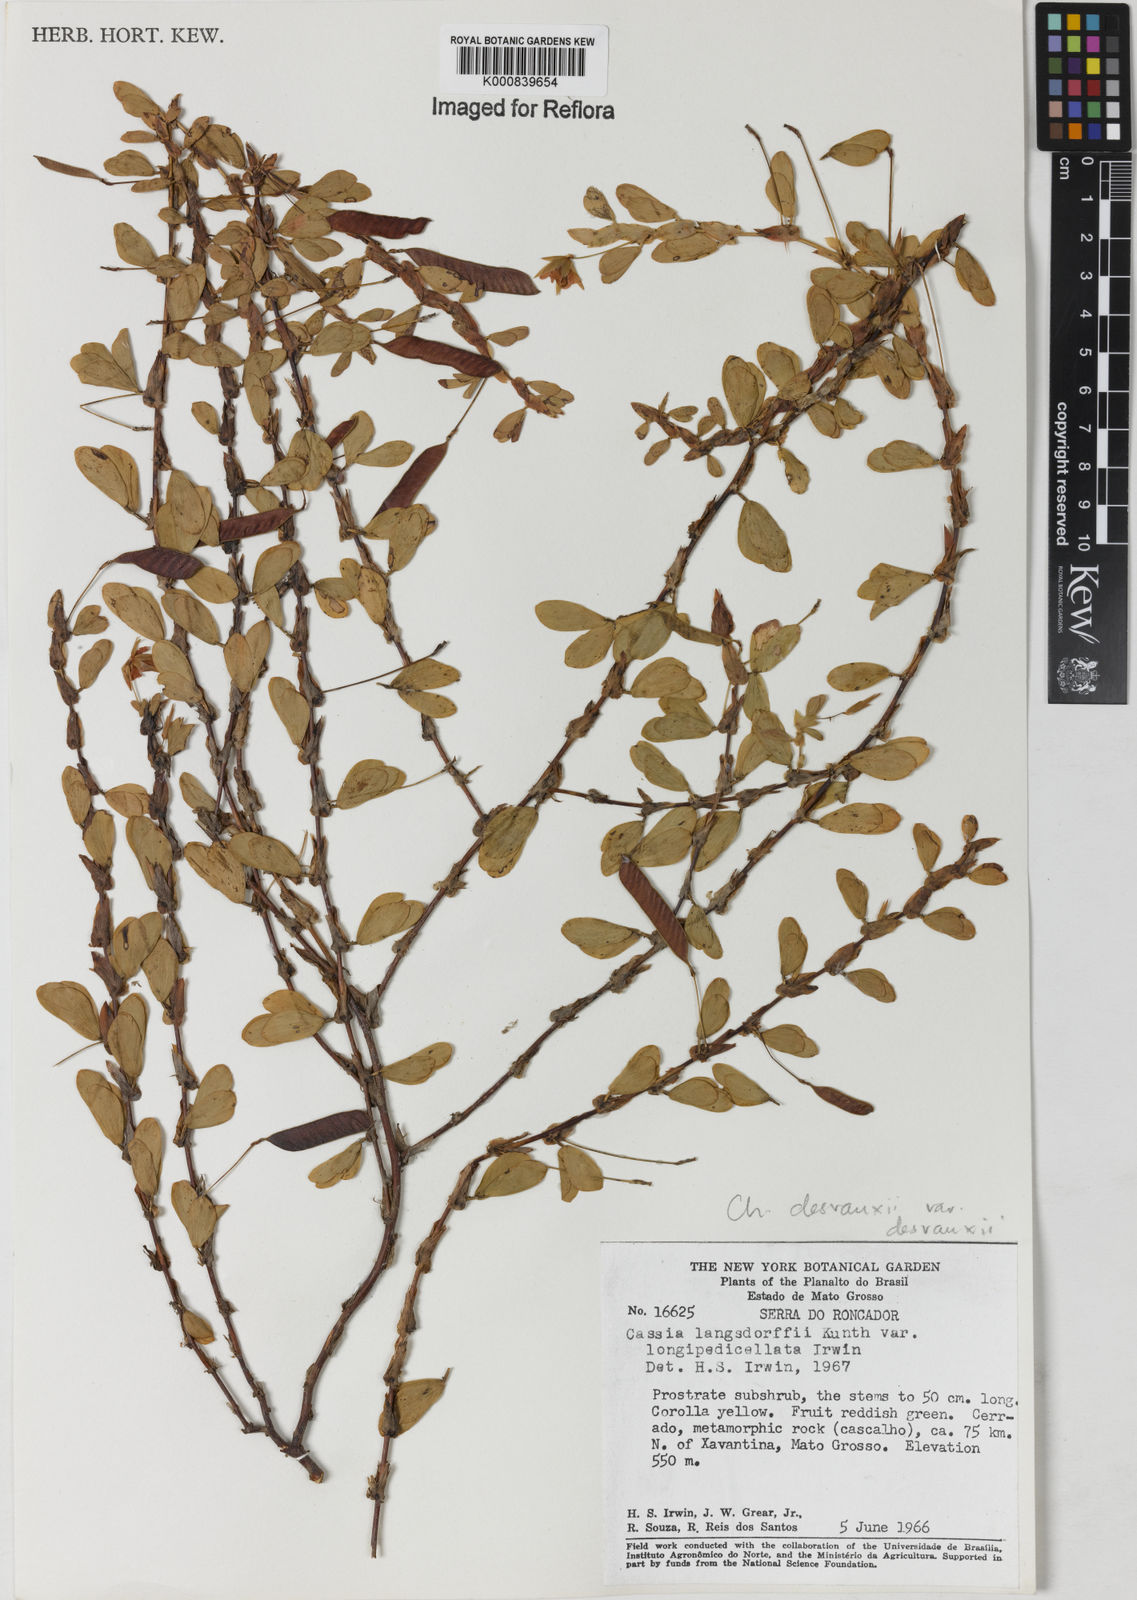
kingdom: Plantae
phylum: Tracheophyta
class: Magnoliopsida
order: Fabales
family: Fabaceae
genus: Chamaecrista
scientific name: Chamaecrista desvauxii
